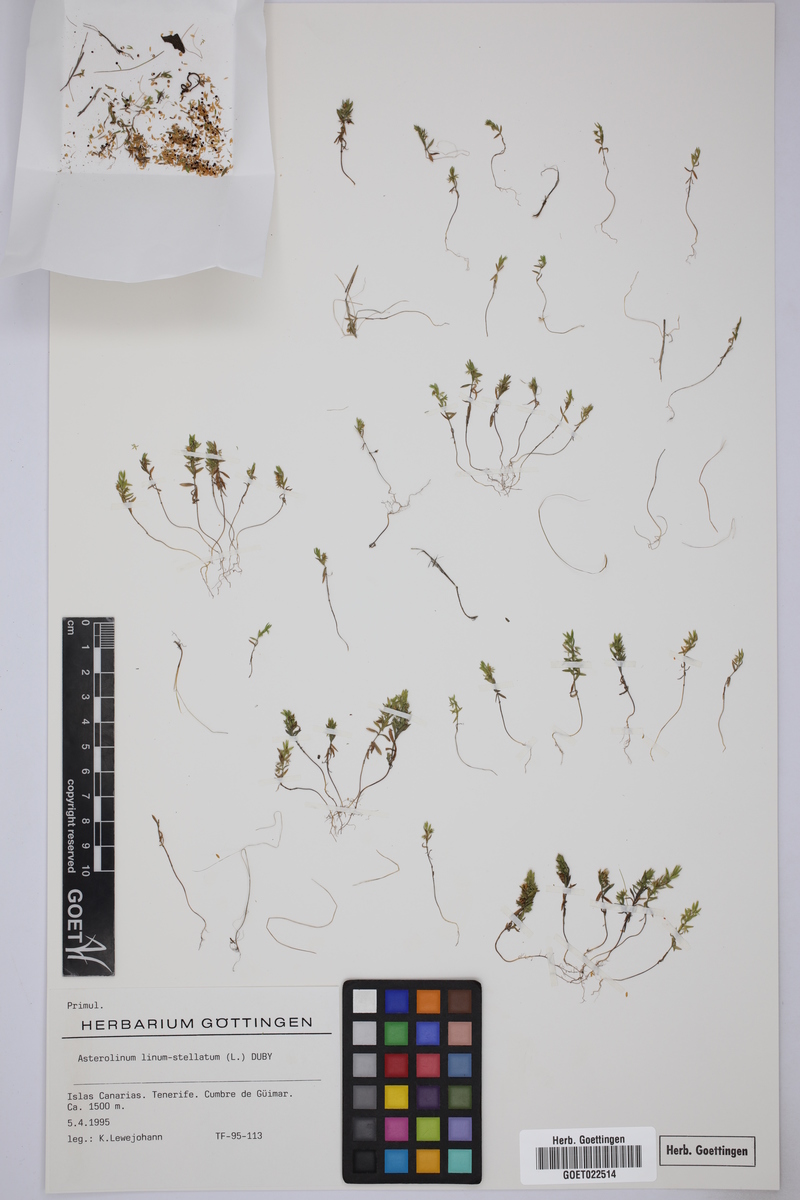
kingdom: Plantae
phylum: Tracheophyta
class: Magnoliopsida
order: Ericales
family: Primulaceae
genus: Lysimachia
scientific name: Lysimachia linum-stellatum
